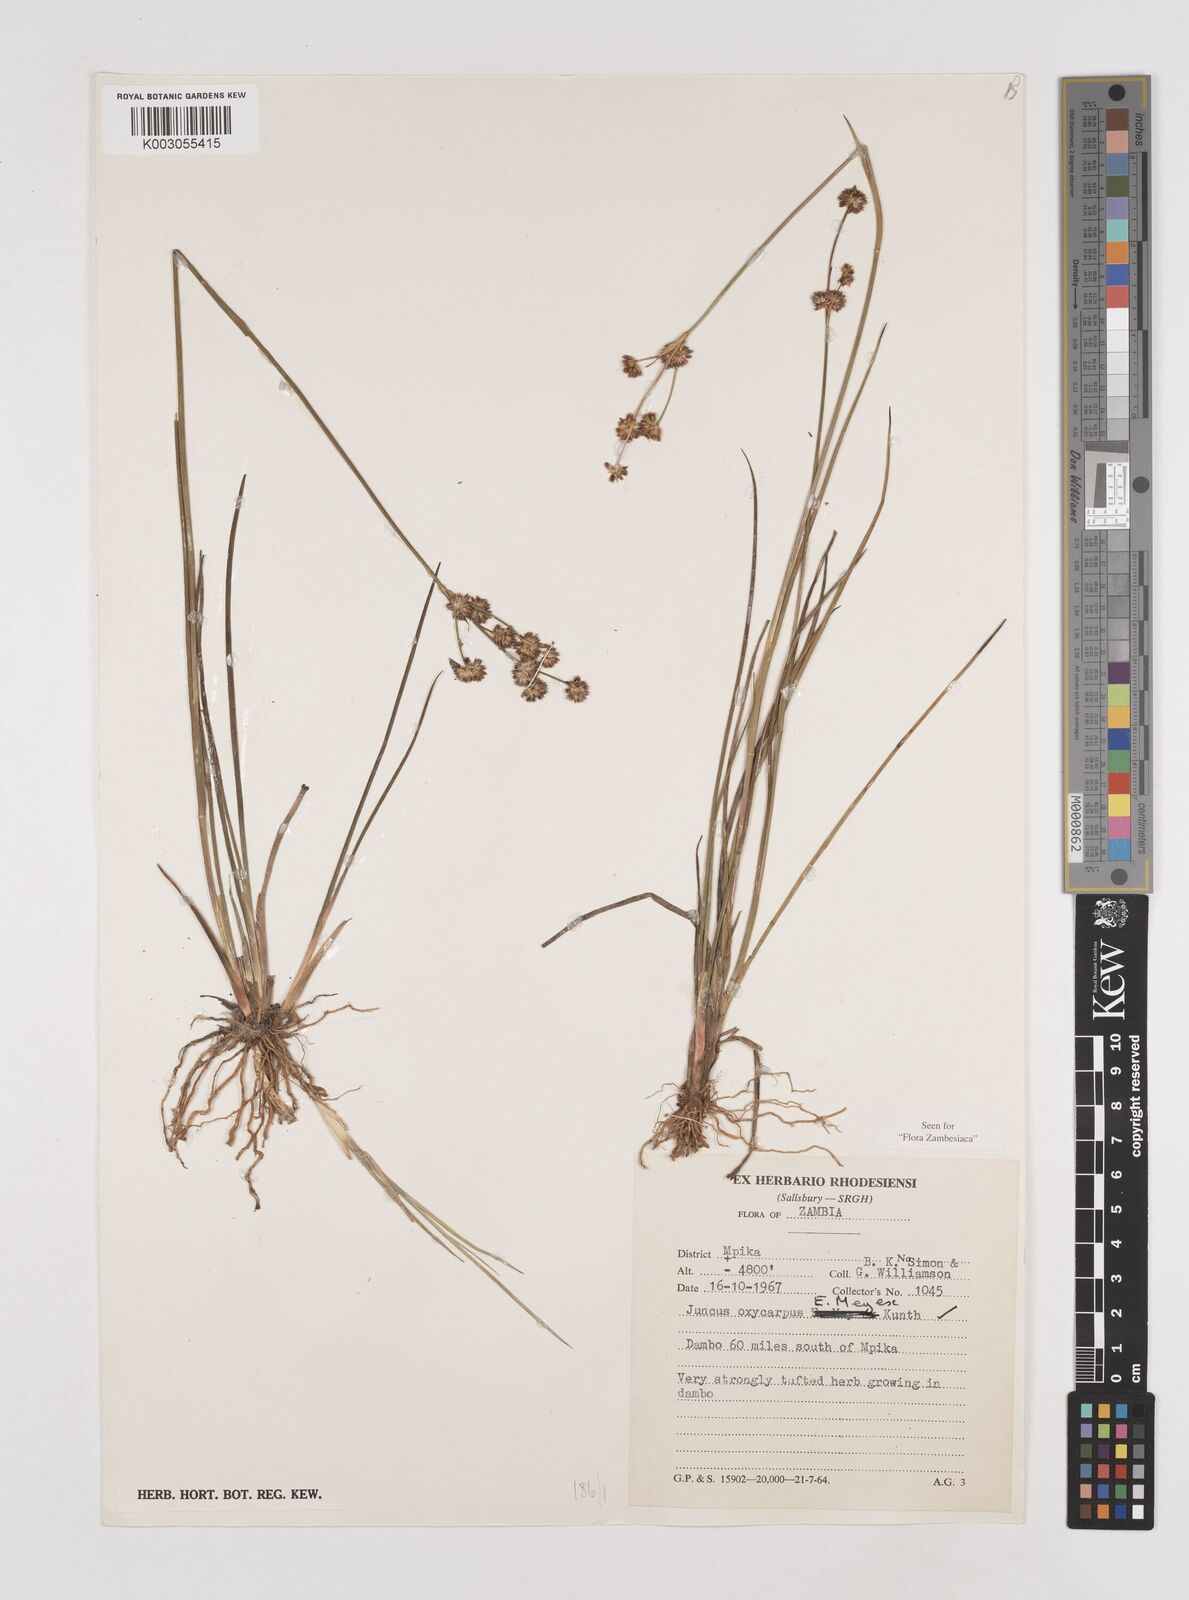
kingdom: Plantae
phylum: Tracheophyta
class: Liliopsida
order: Poales
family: Juncaceae
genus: Juncus
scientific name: Juncus oxycarpus
